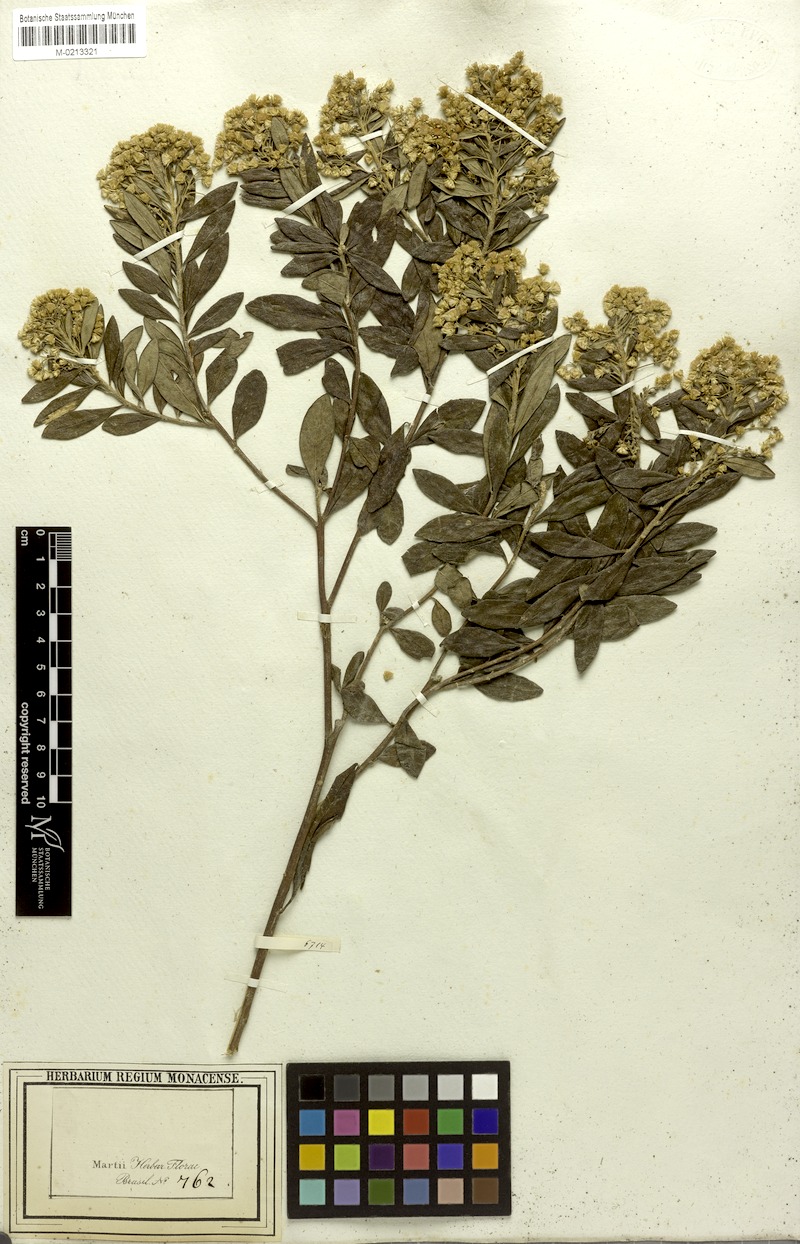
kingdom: Plantae
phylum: Tracheophyta
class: Magnoliopsida
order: Asterales
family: Asteraceae
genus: Baccharis
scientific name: Baccharis calvescens
